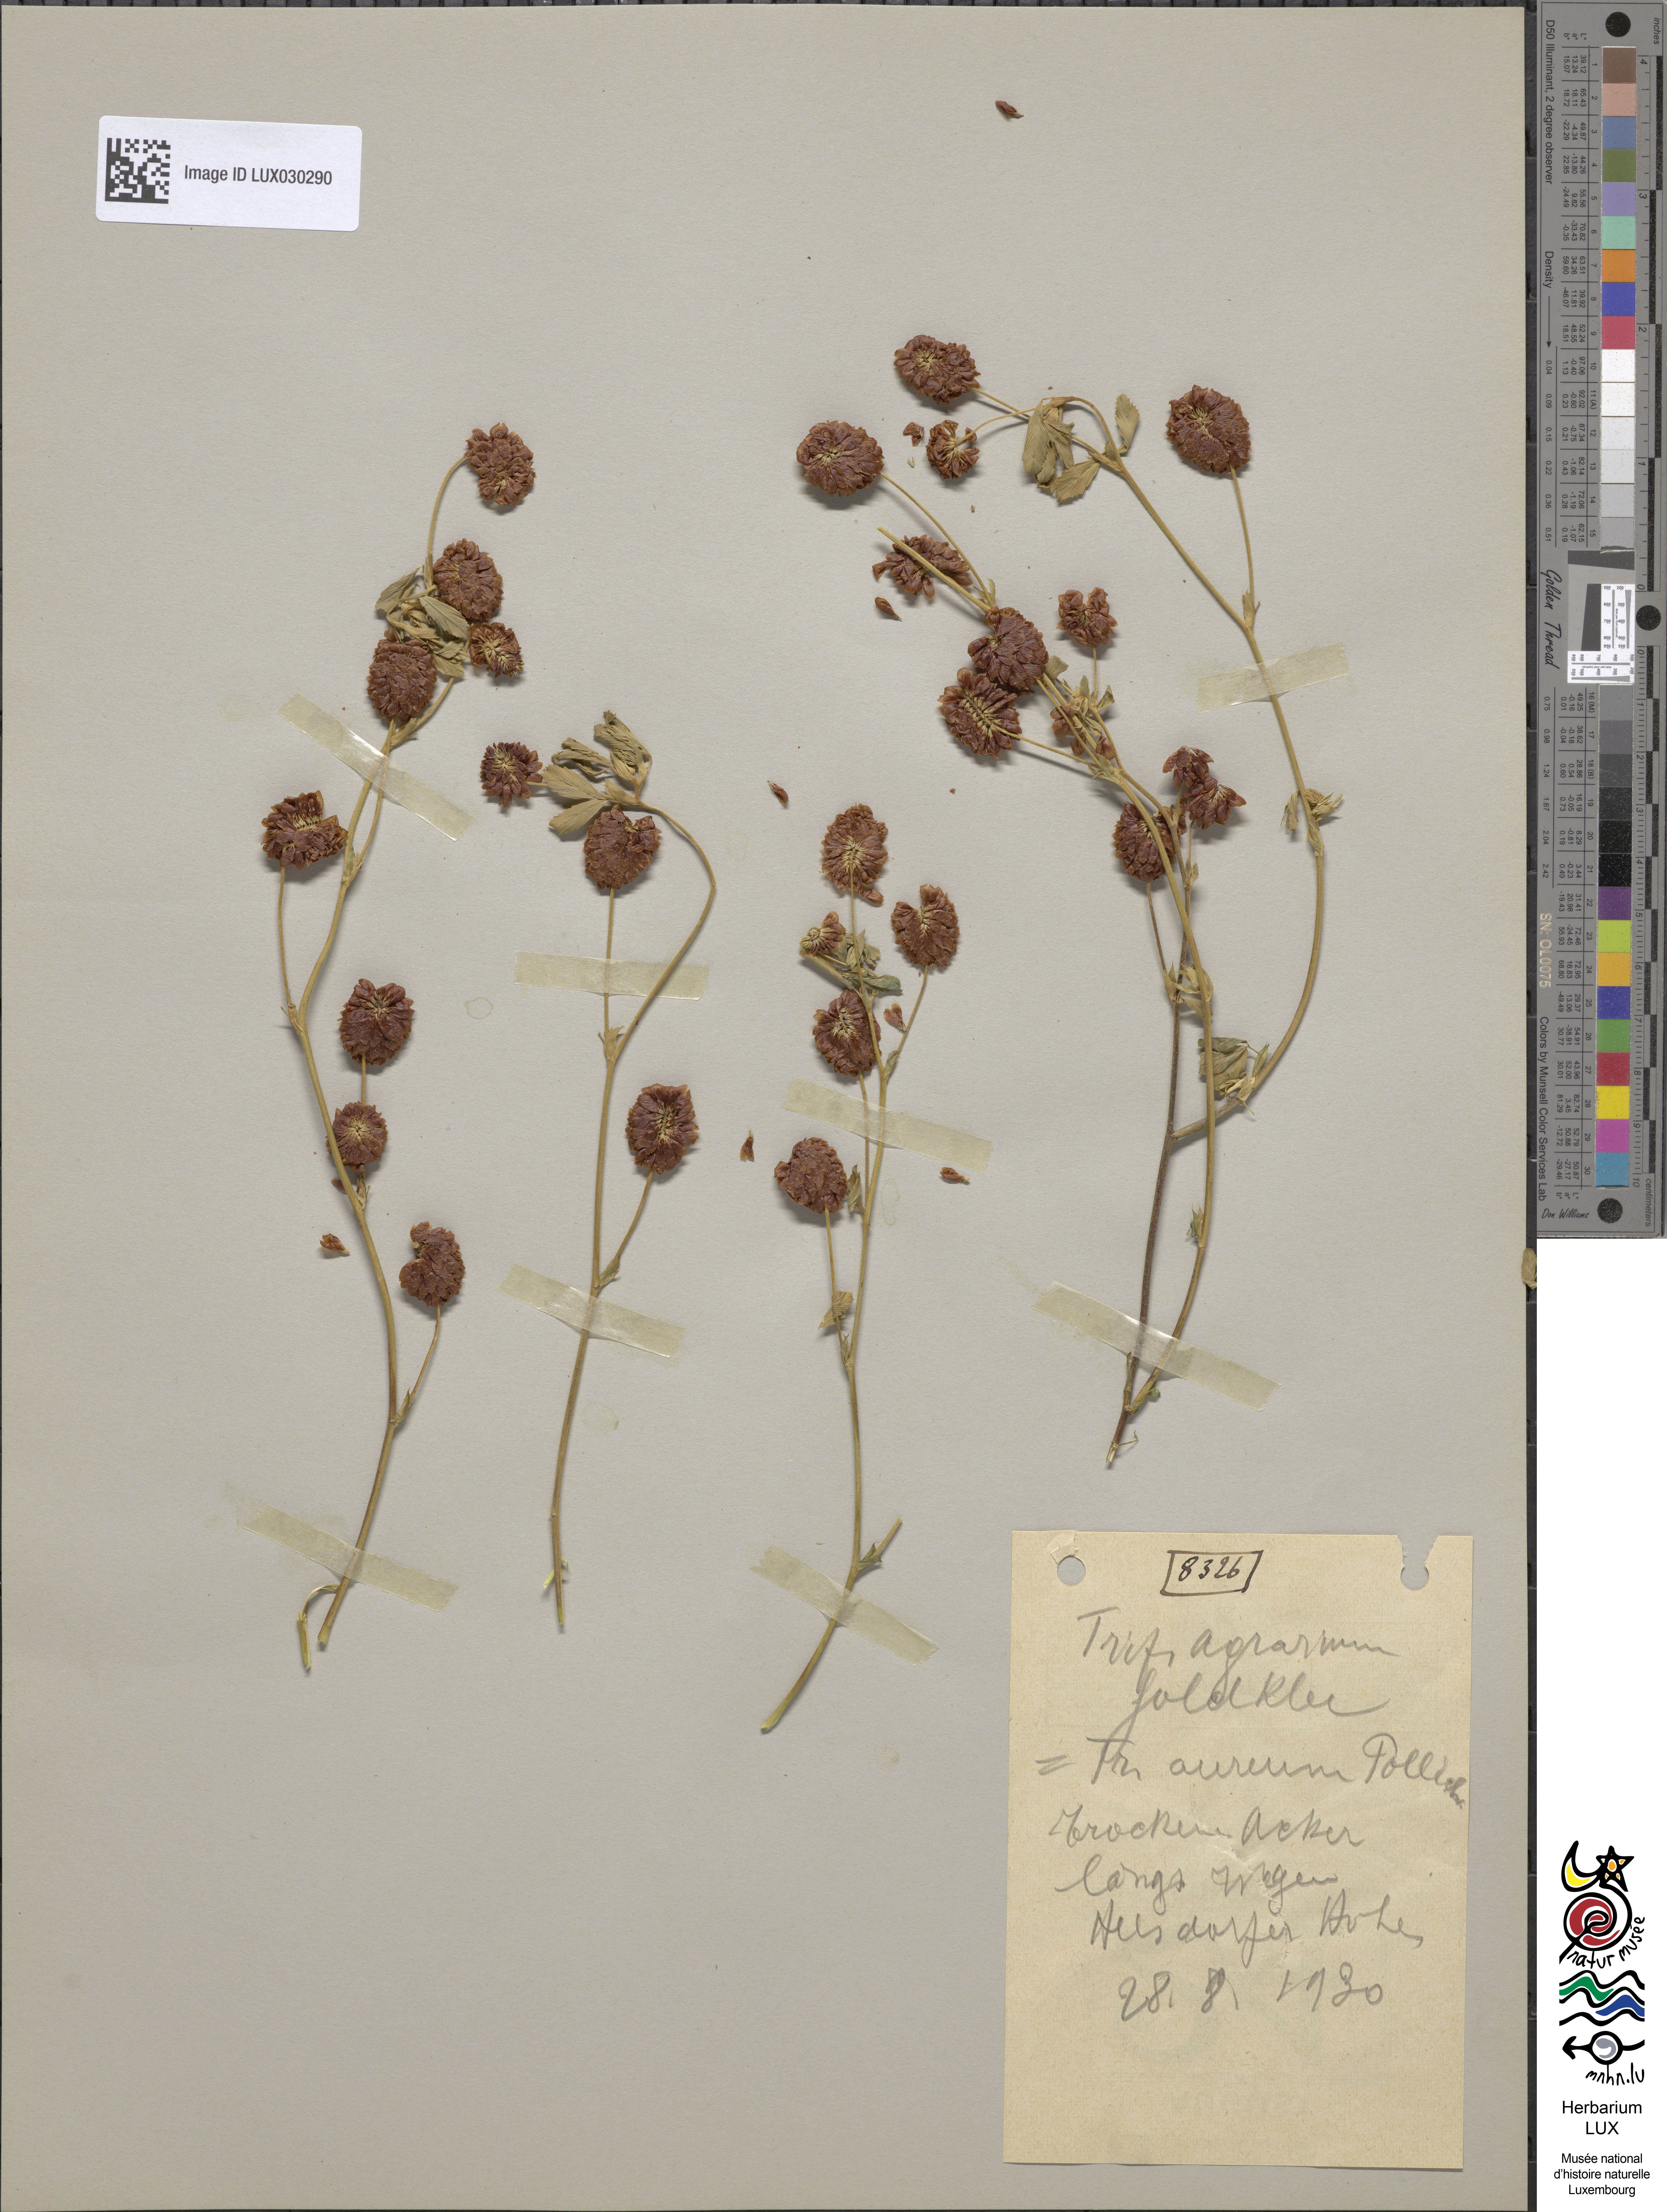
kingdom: Plantae
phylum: Tracheophyta
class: Magnoliopsida
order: Fabales
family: Fabaceae
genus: Trifolium
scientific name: Trifolium aureum
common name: Golden clover
